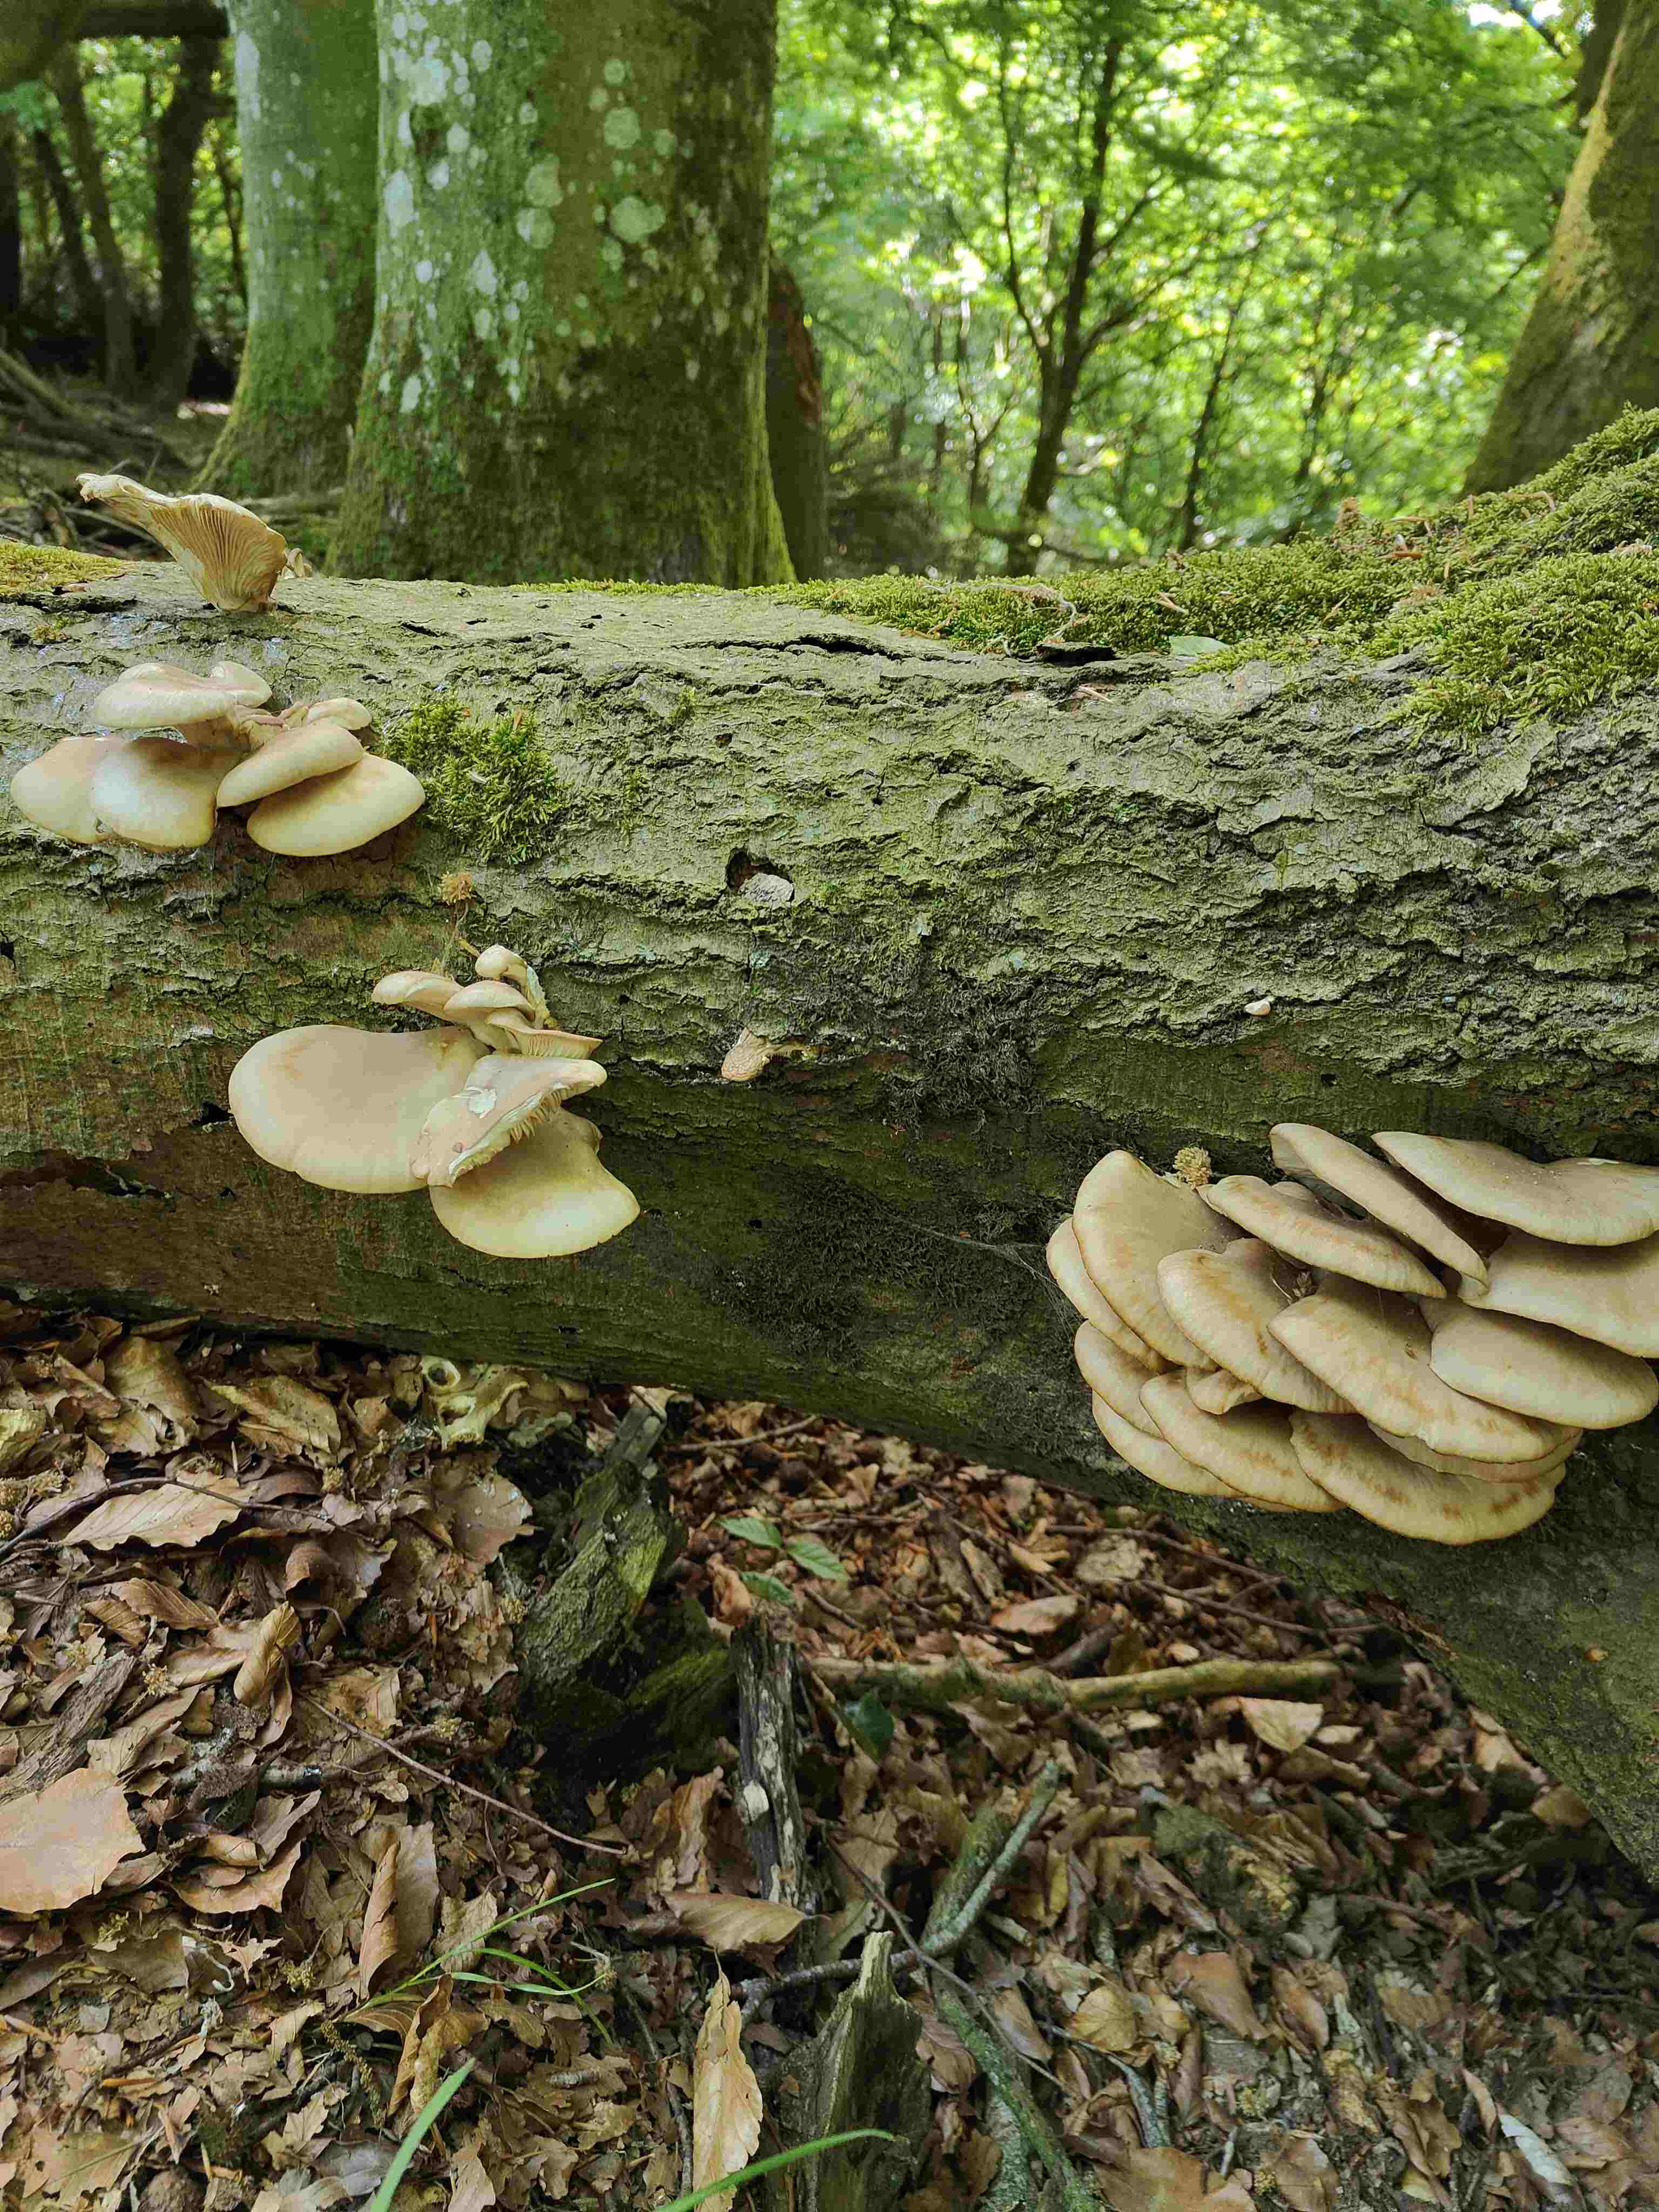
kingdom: Fungi
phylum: Basidiomycota
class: Agaricomycetes
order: Agaricales
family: Pleurotaceae
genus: Pleurotus
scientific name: Pleurotus pulmonarius
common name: sommer-østershat
